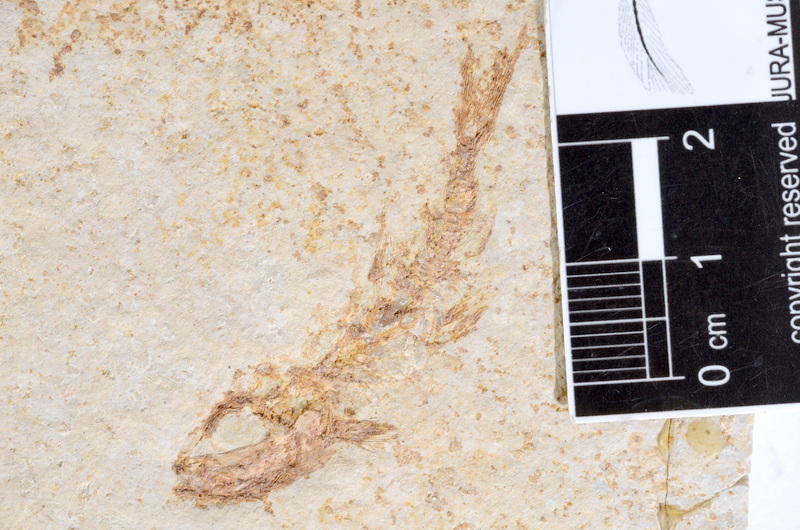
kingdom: Animalia
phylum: Chordata
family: Ascalaboidae
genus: Tharsis
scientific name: Tharsis dubius
